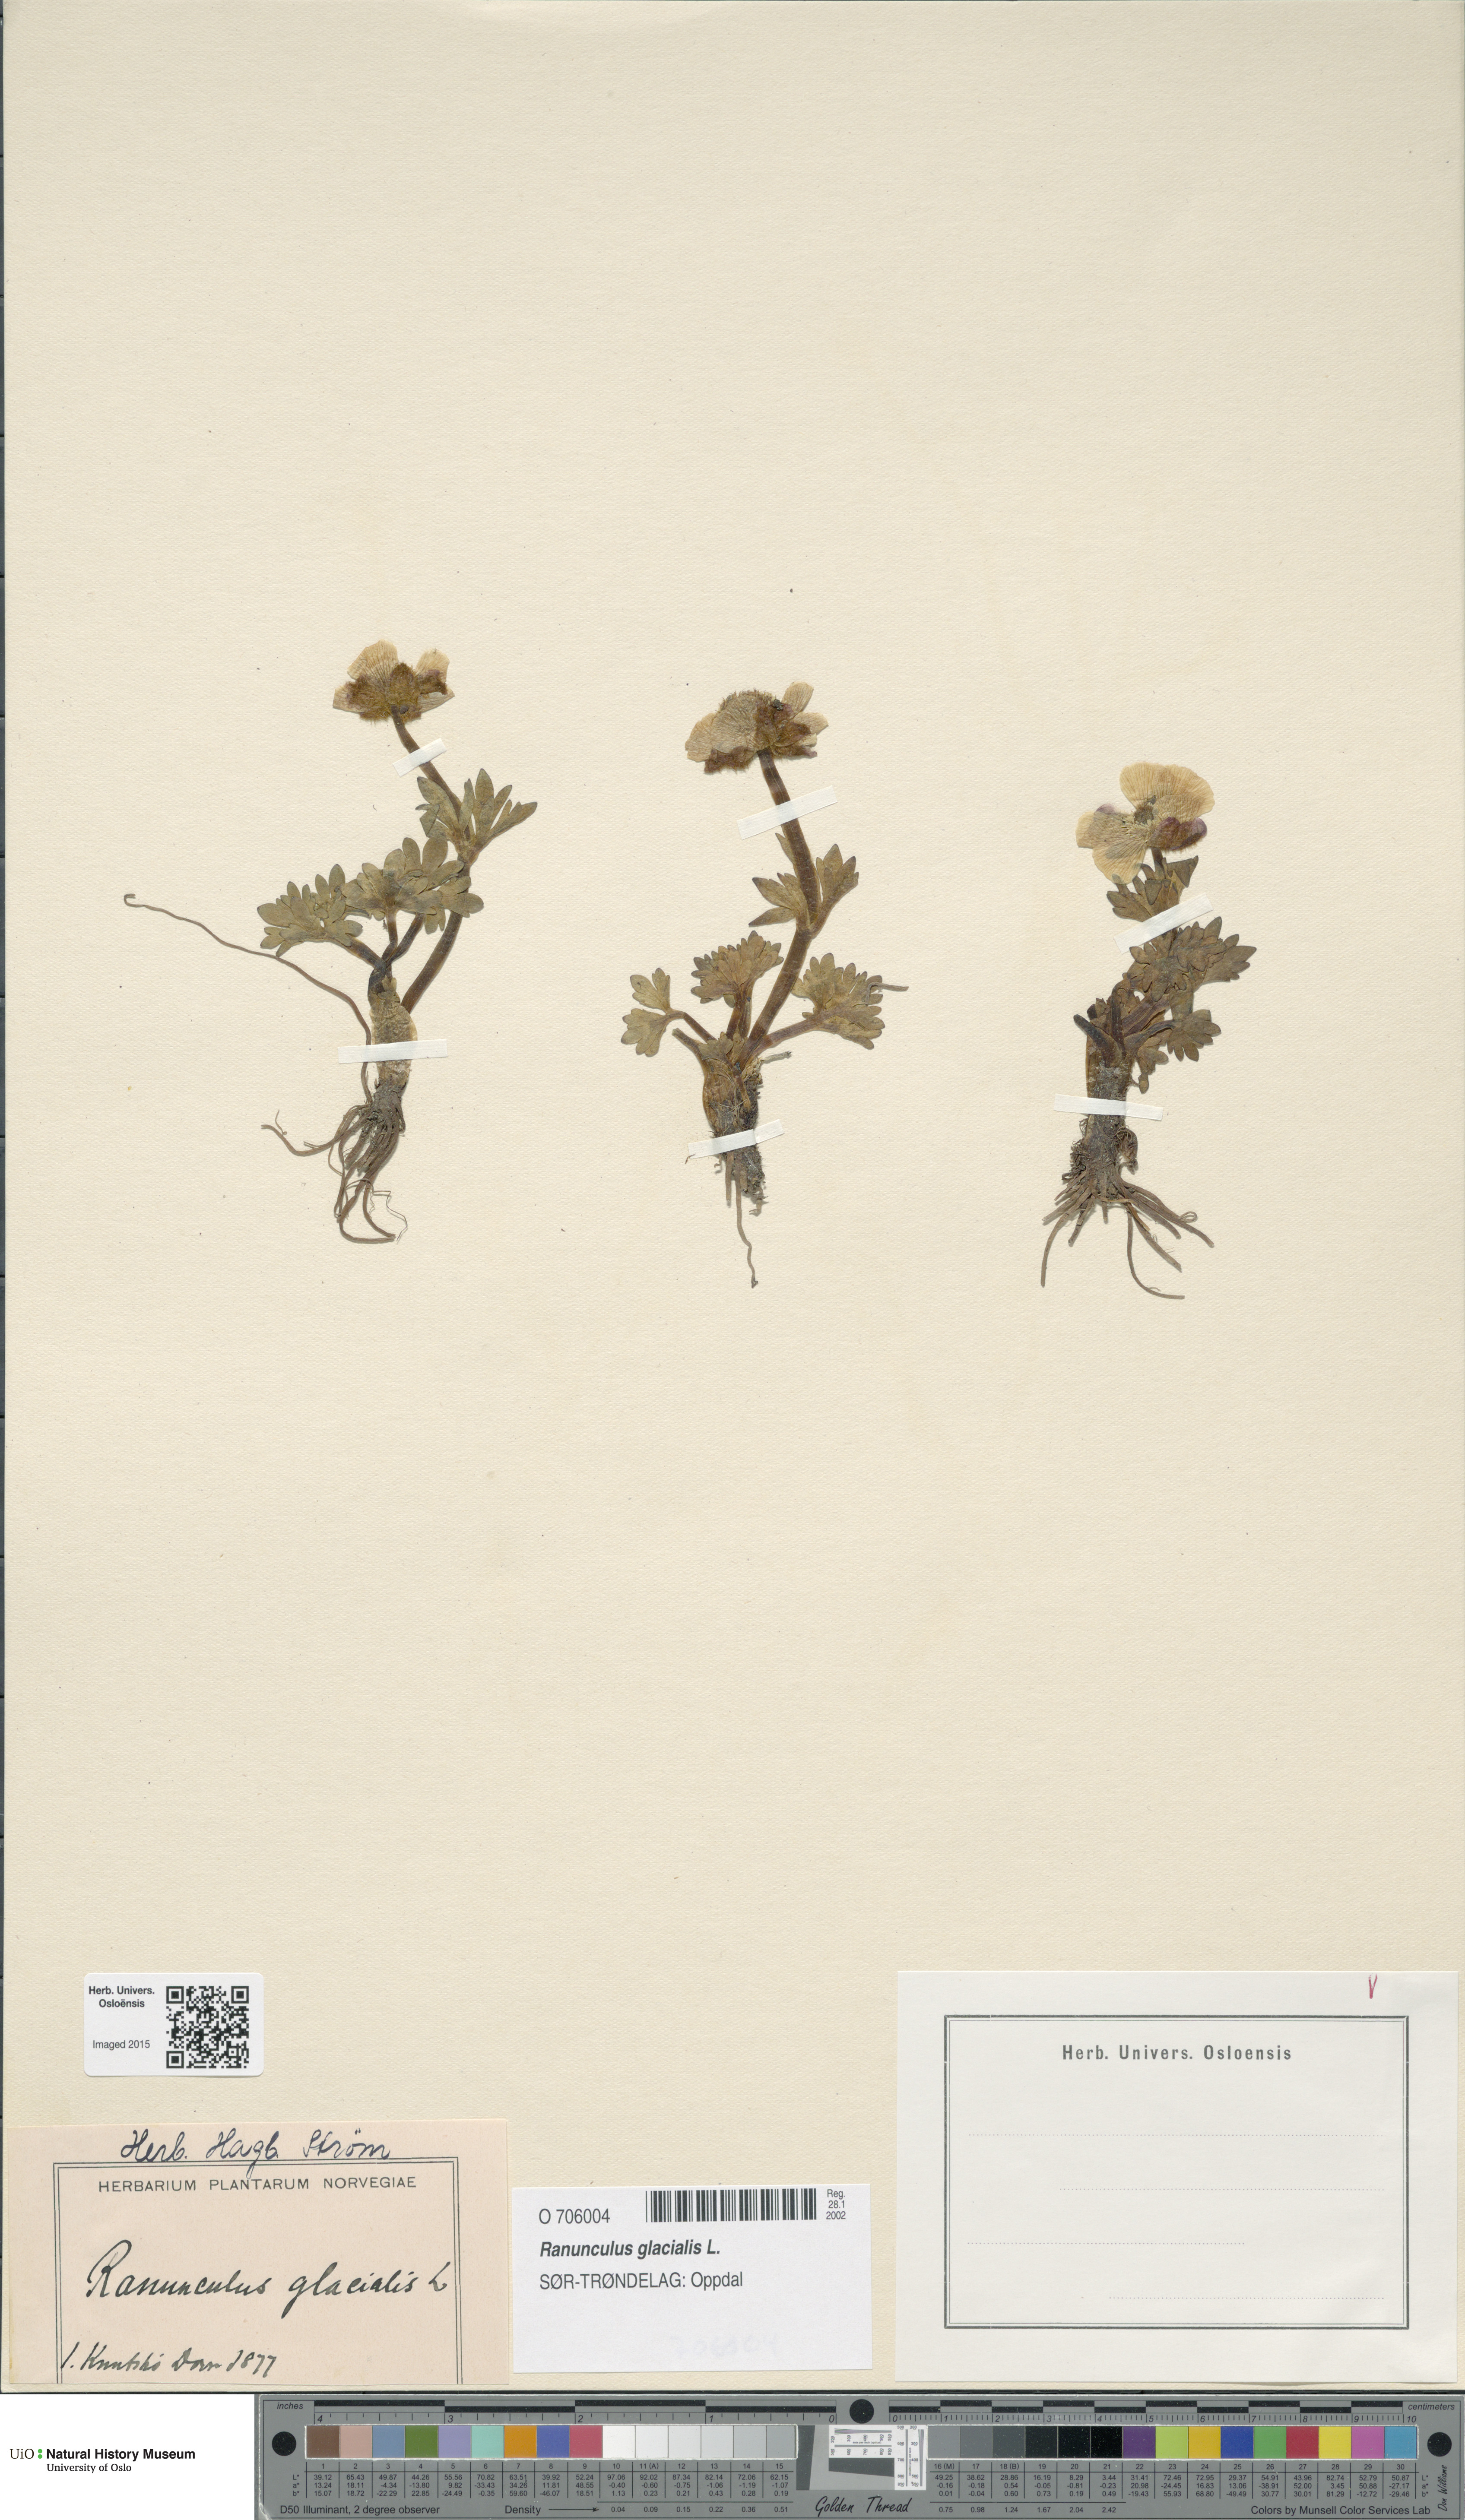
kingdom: Plantae
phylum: Tracheophyta
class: Magnoliopsida
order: Ranunculales
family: Ranunculaceae
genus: Ranunculus
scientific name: Ranunculus glacialis
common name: Glacier buttercup
